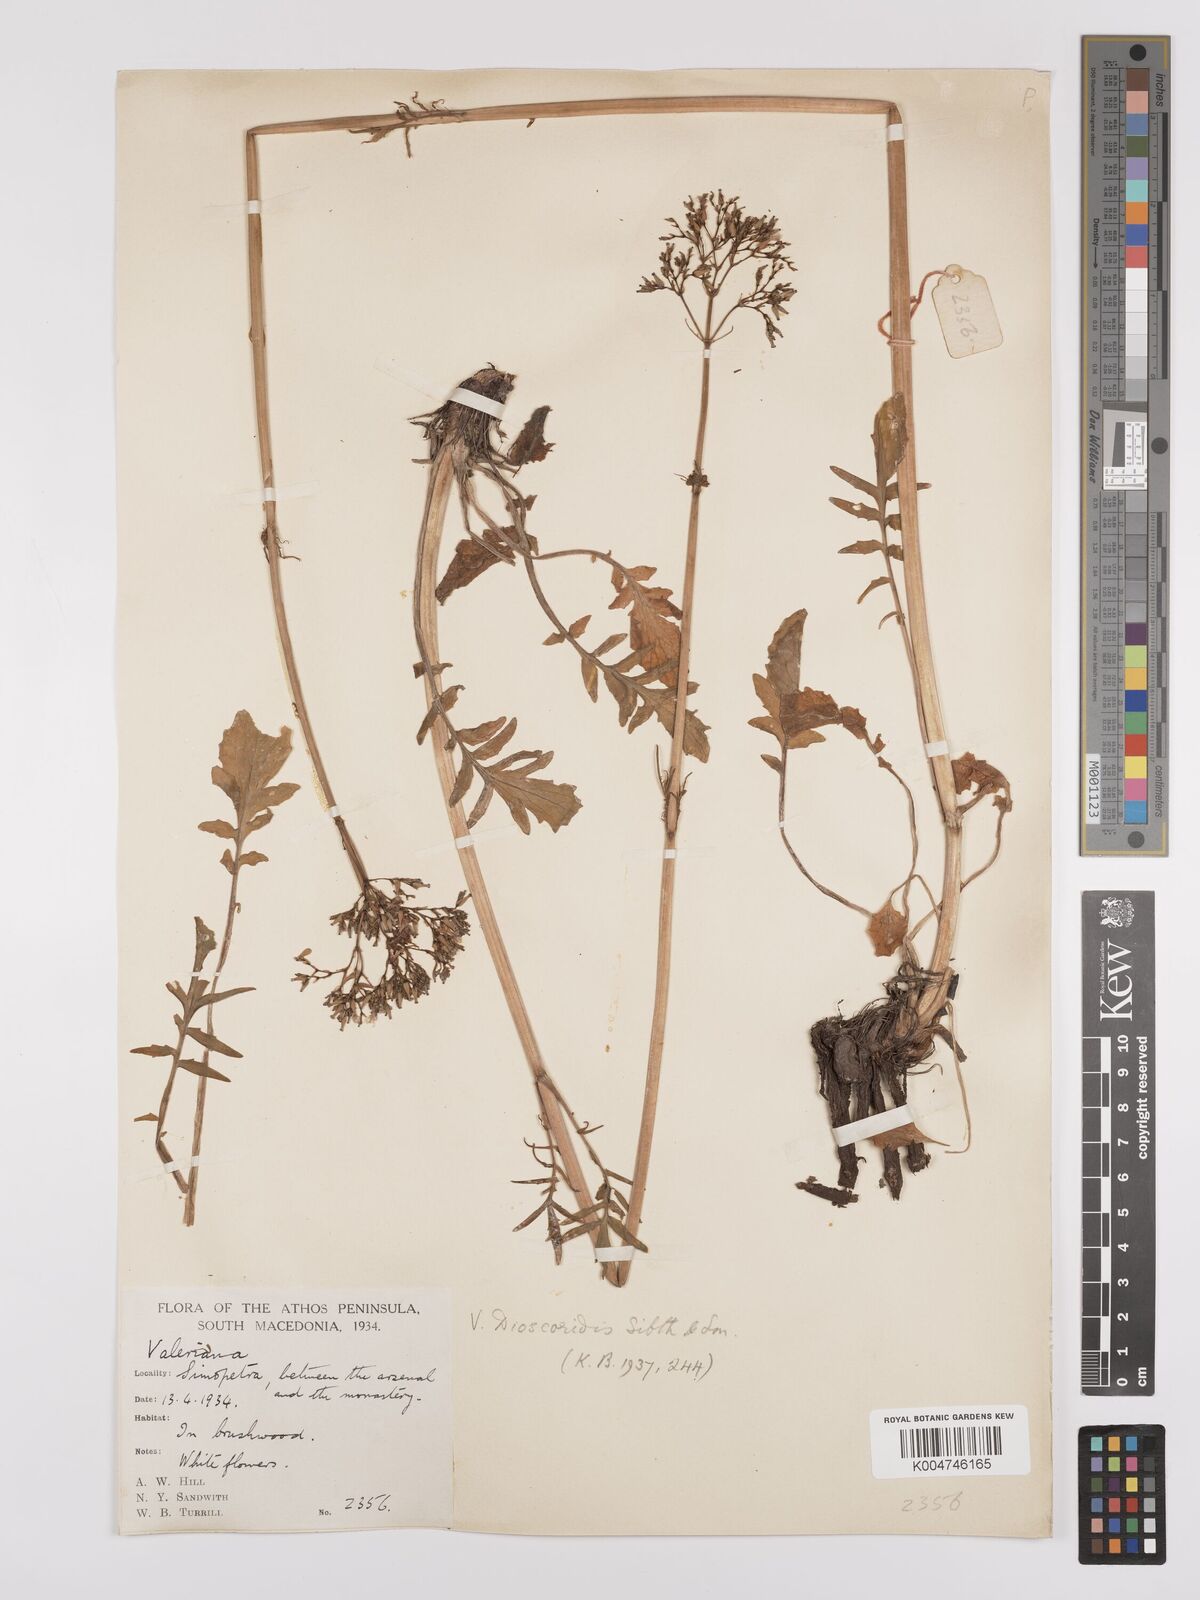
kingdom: Plantae
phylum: Tracheophyta
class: Magnoliopsida
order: Dipsacales
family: Caprifoliaceae
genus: Valeriana
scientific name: Valeriana dioscoridis
